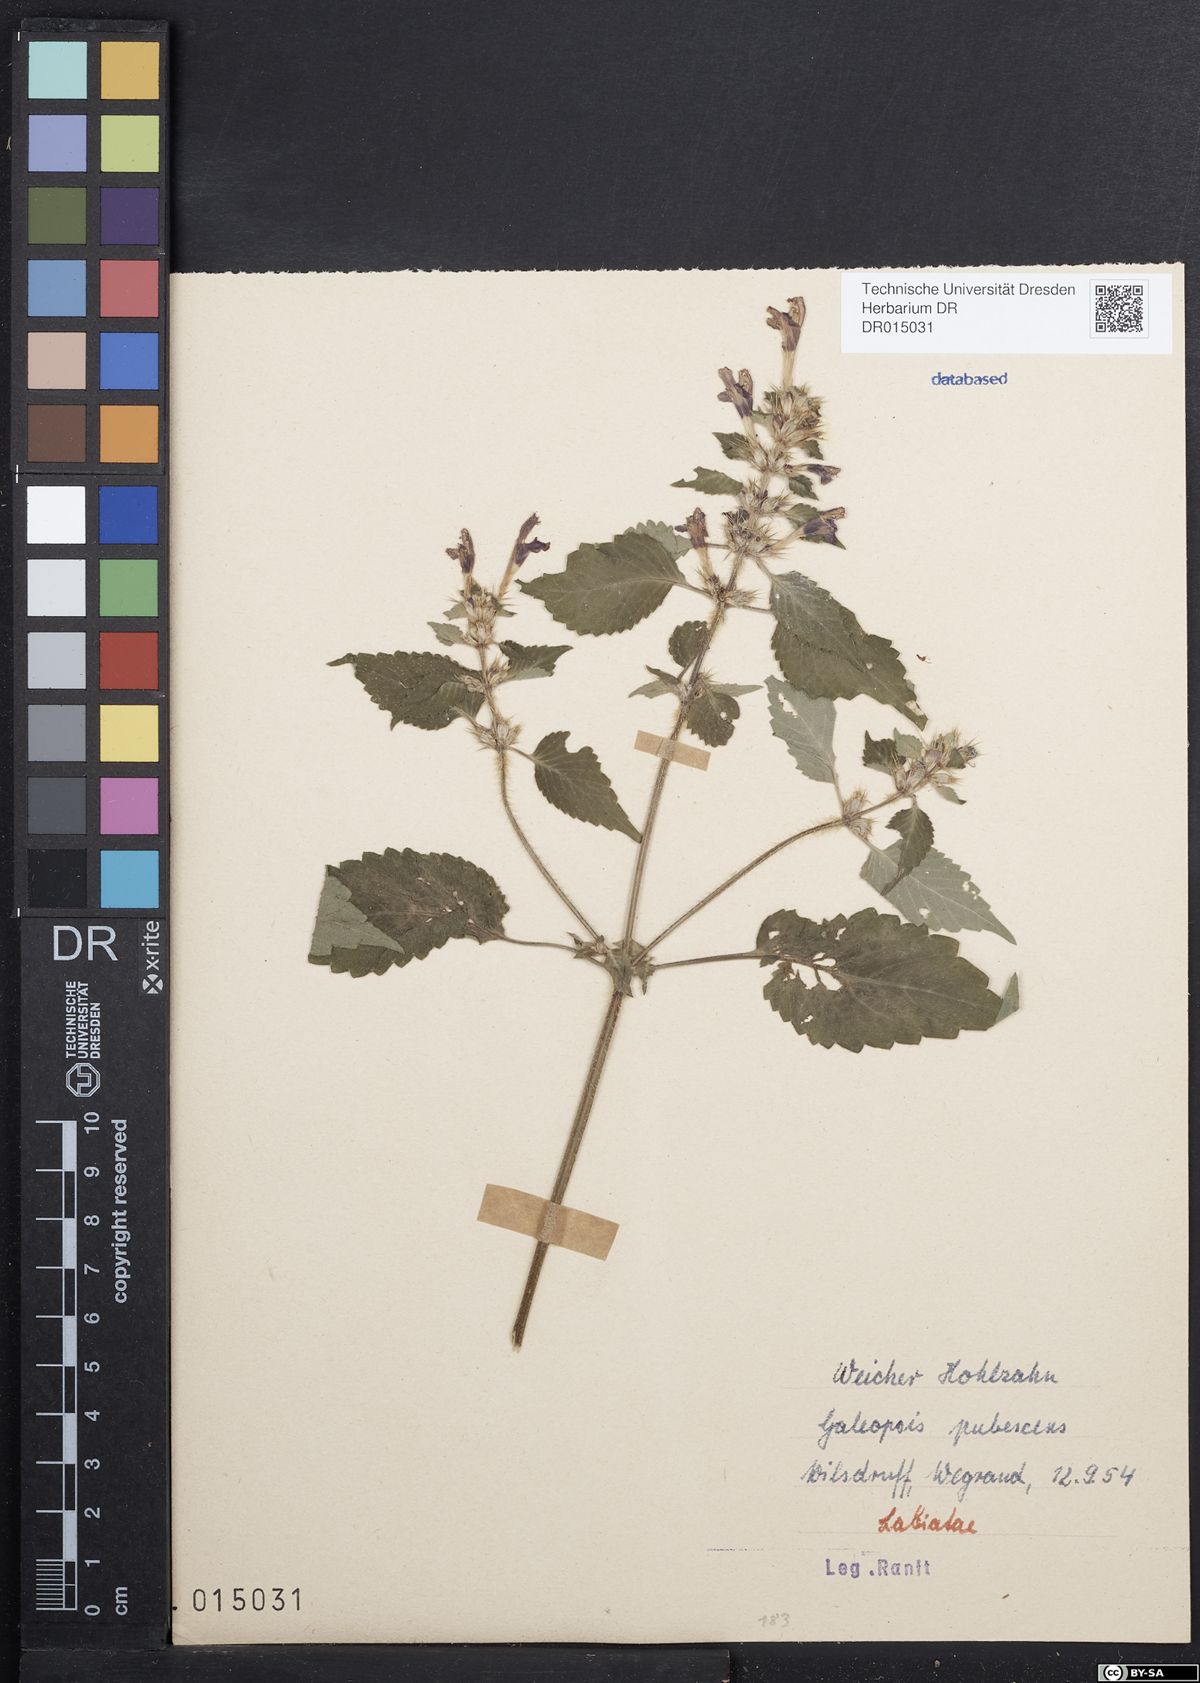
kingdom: Plantae
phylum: Tracheophyta
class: Magnoliopsida
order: Lamiales
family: Lamiaceae
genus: Galeopsis
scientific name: Galeopsis pubescens
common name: Downy hemp-nettle
